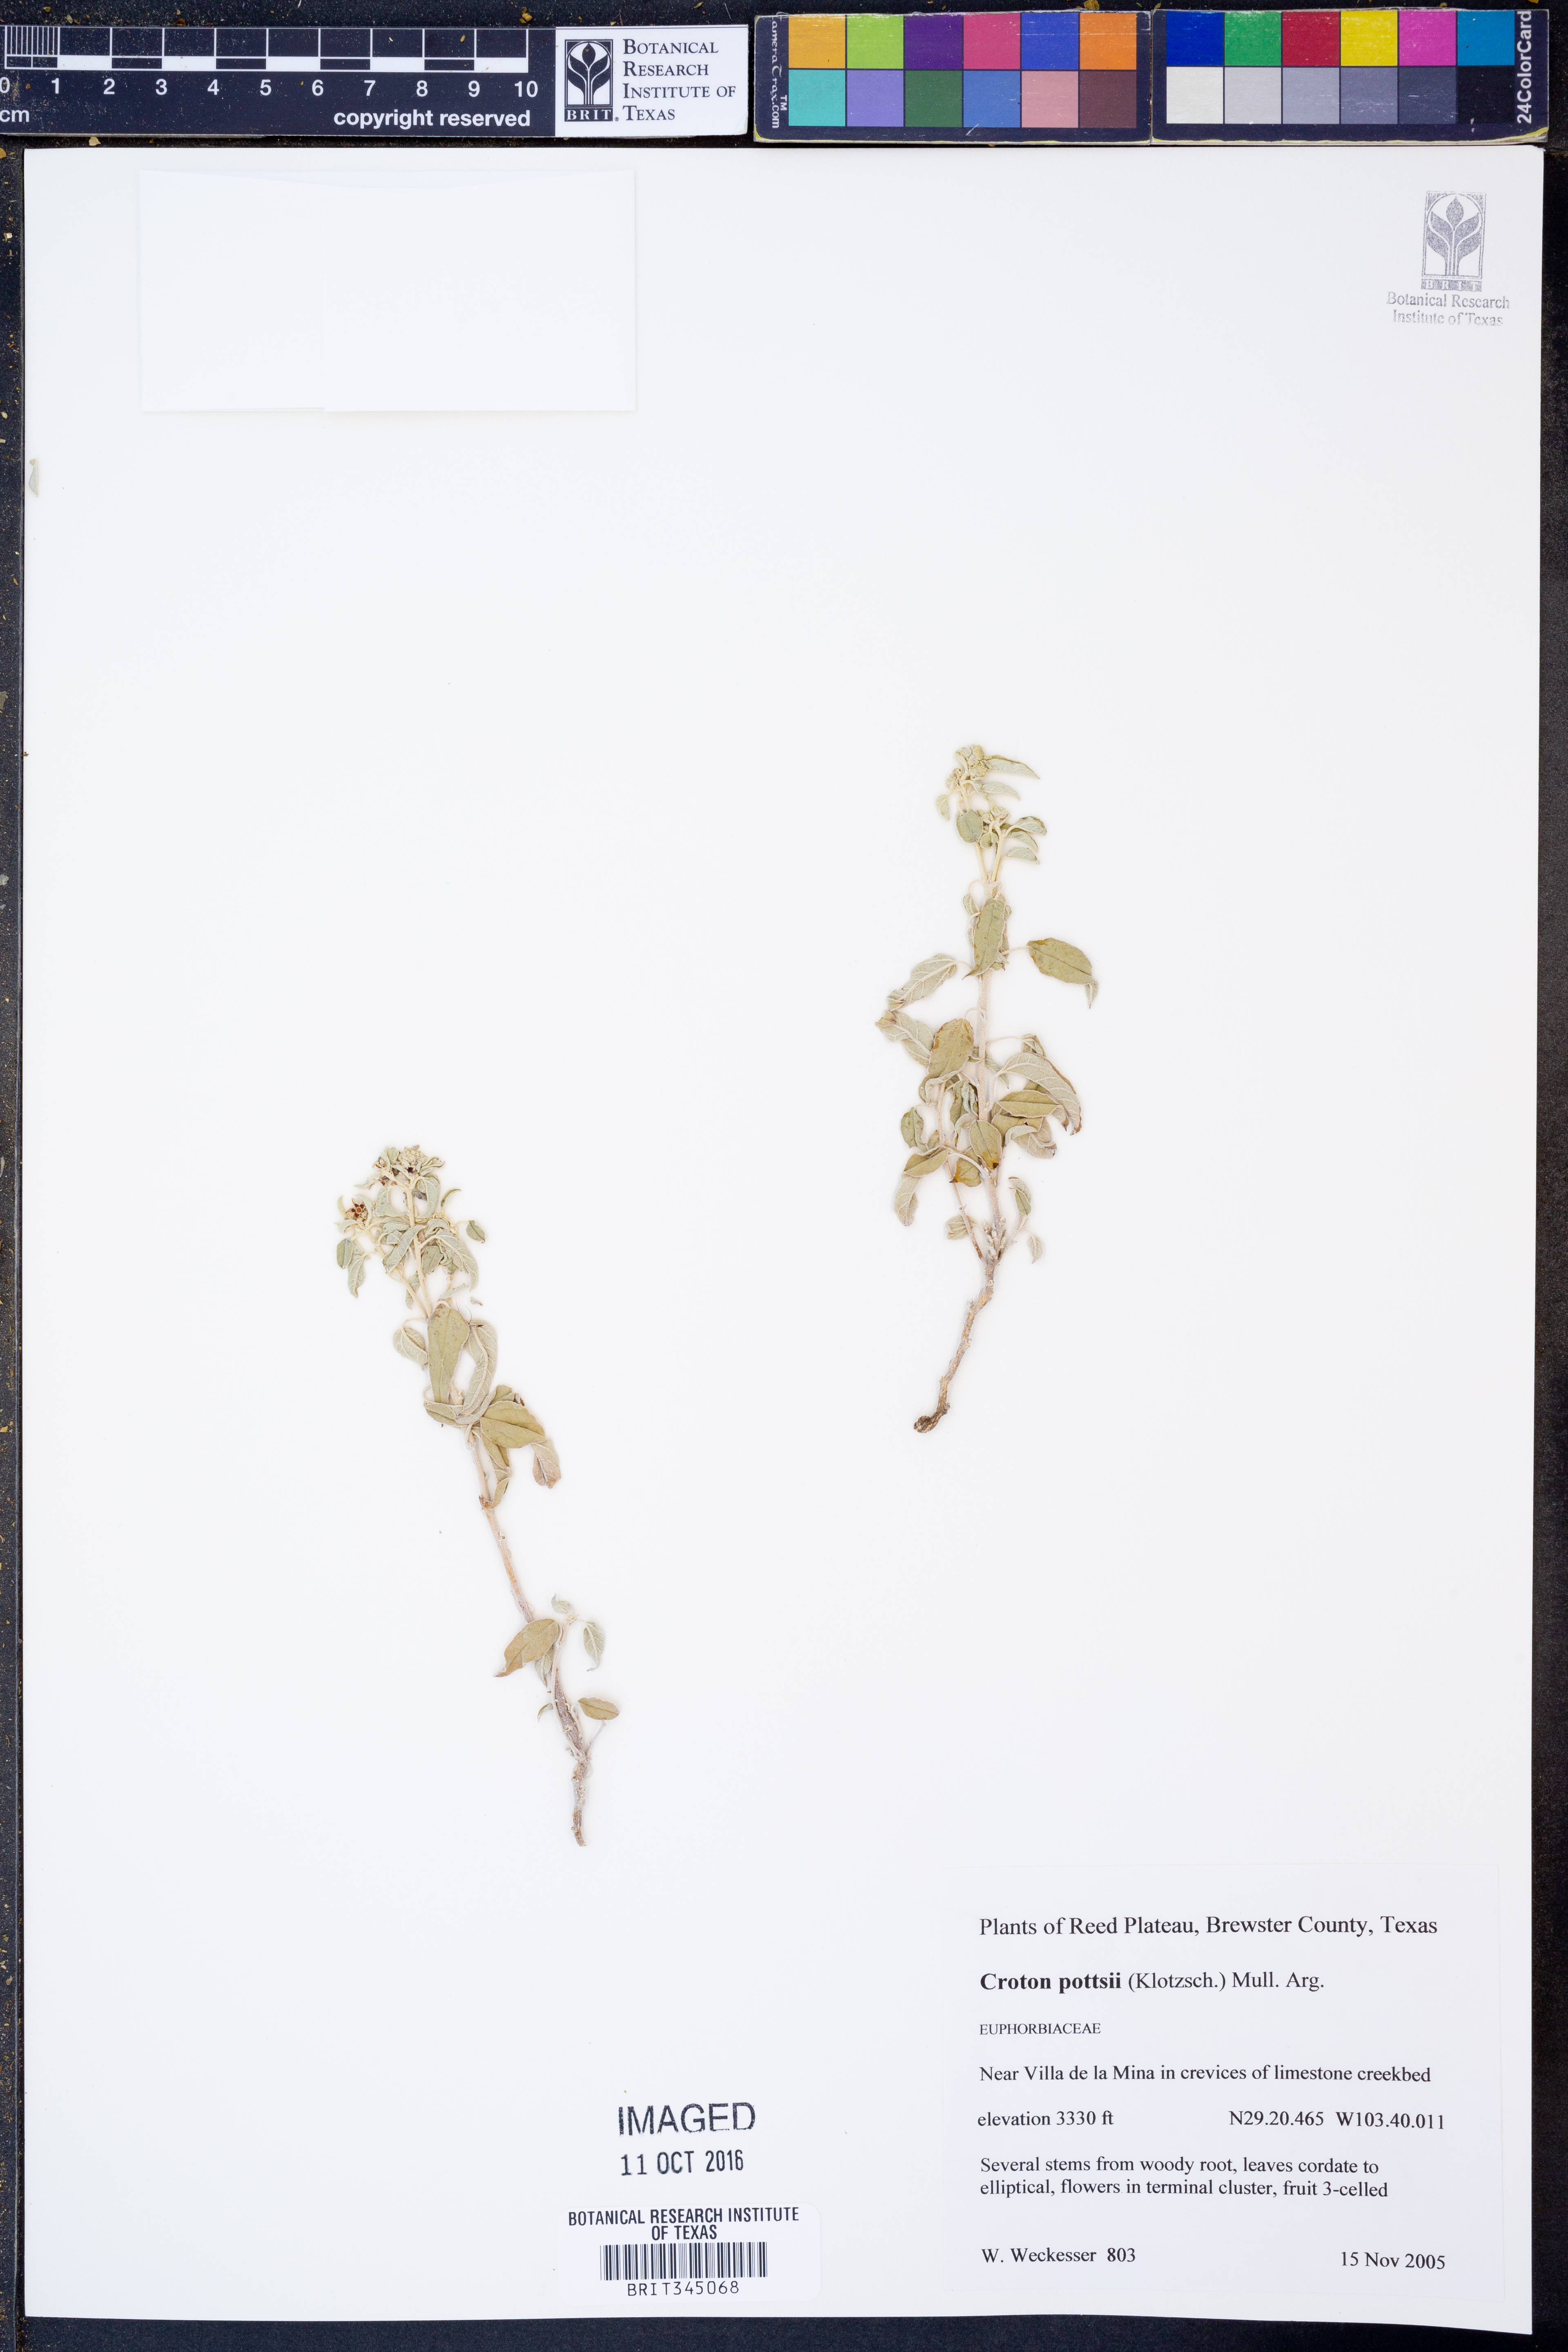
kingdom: Plantae
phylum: Tracheophyta
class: Magnoliopsida
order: Malpighiales
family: Euphorbiaceae
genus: Croton
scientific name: Croton pottsii
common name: Leatherweed
